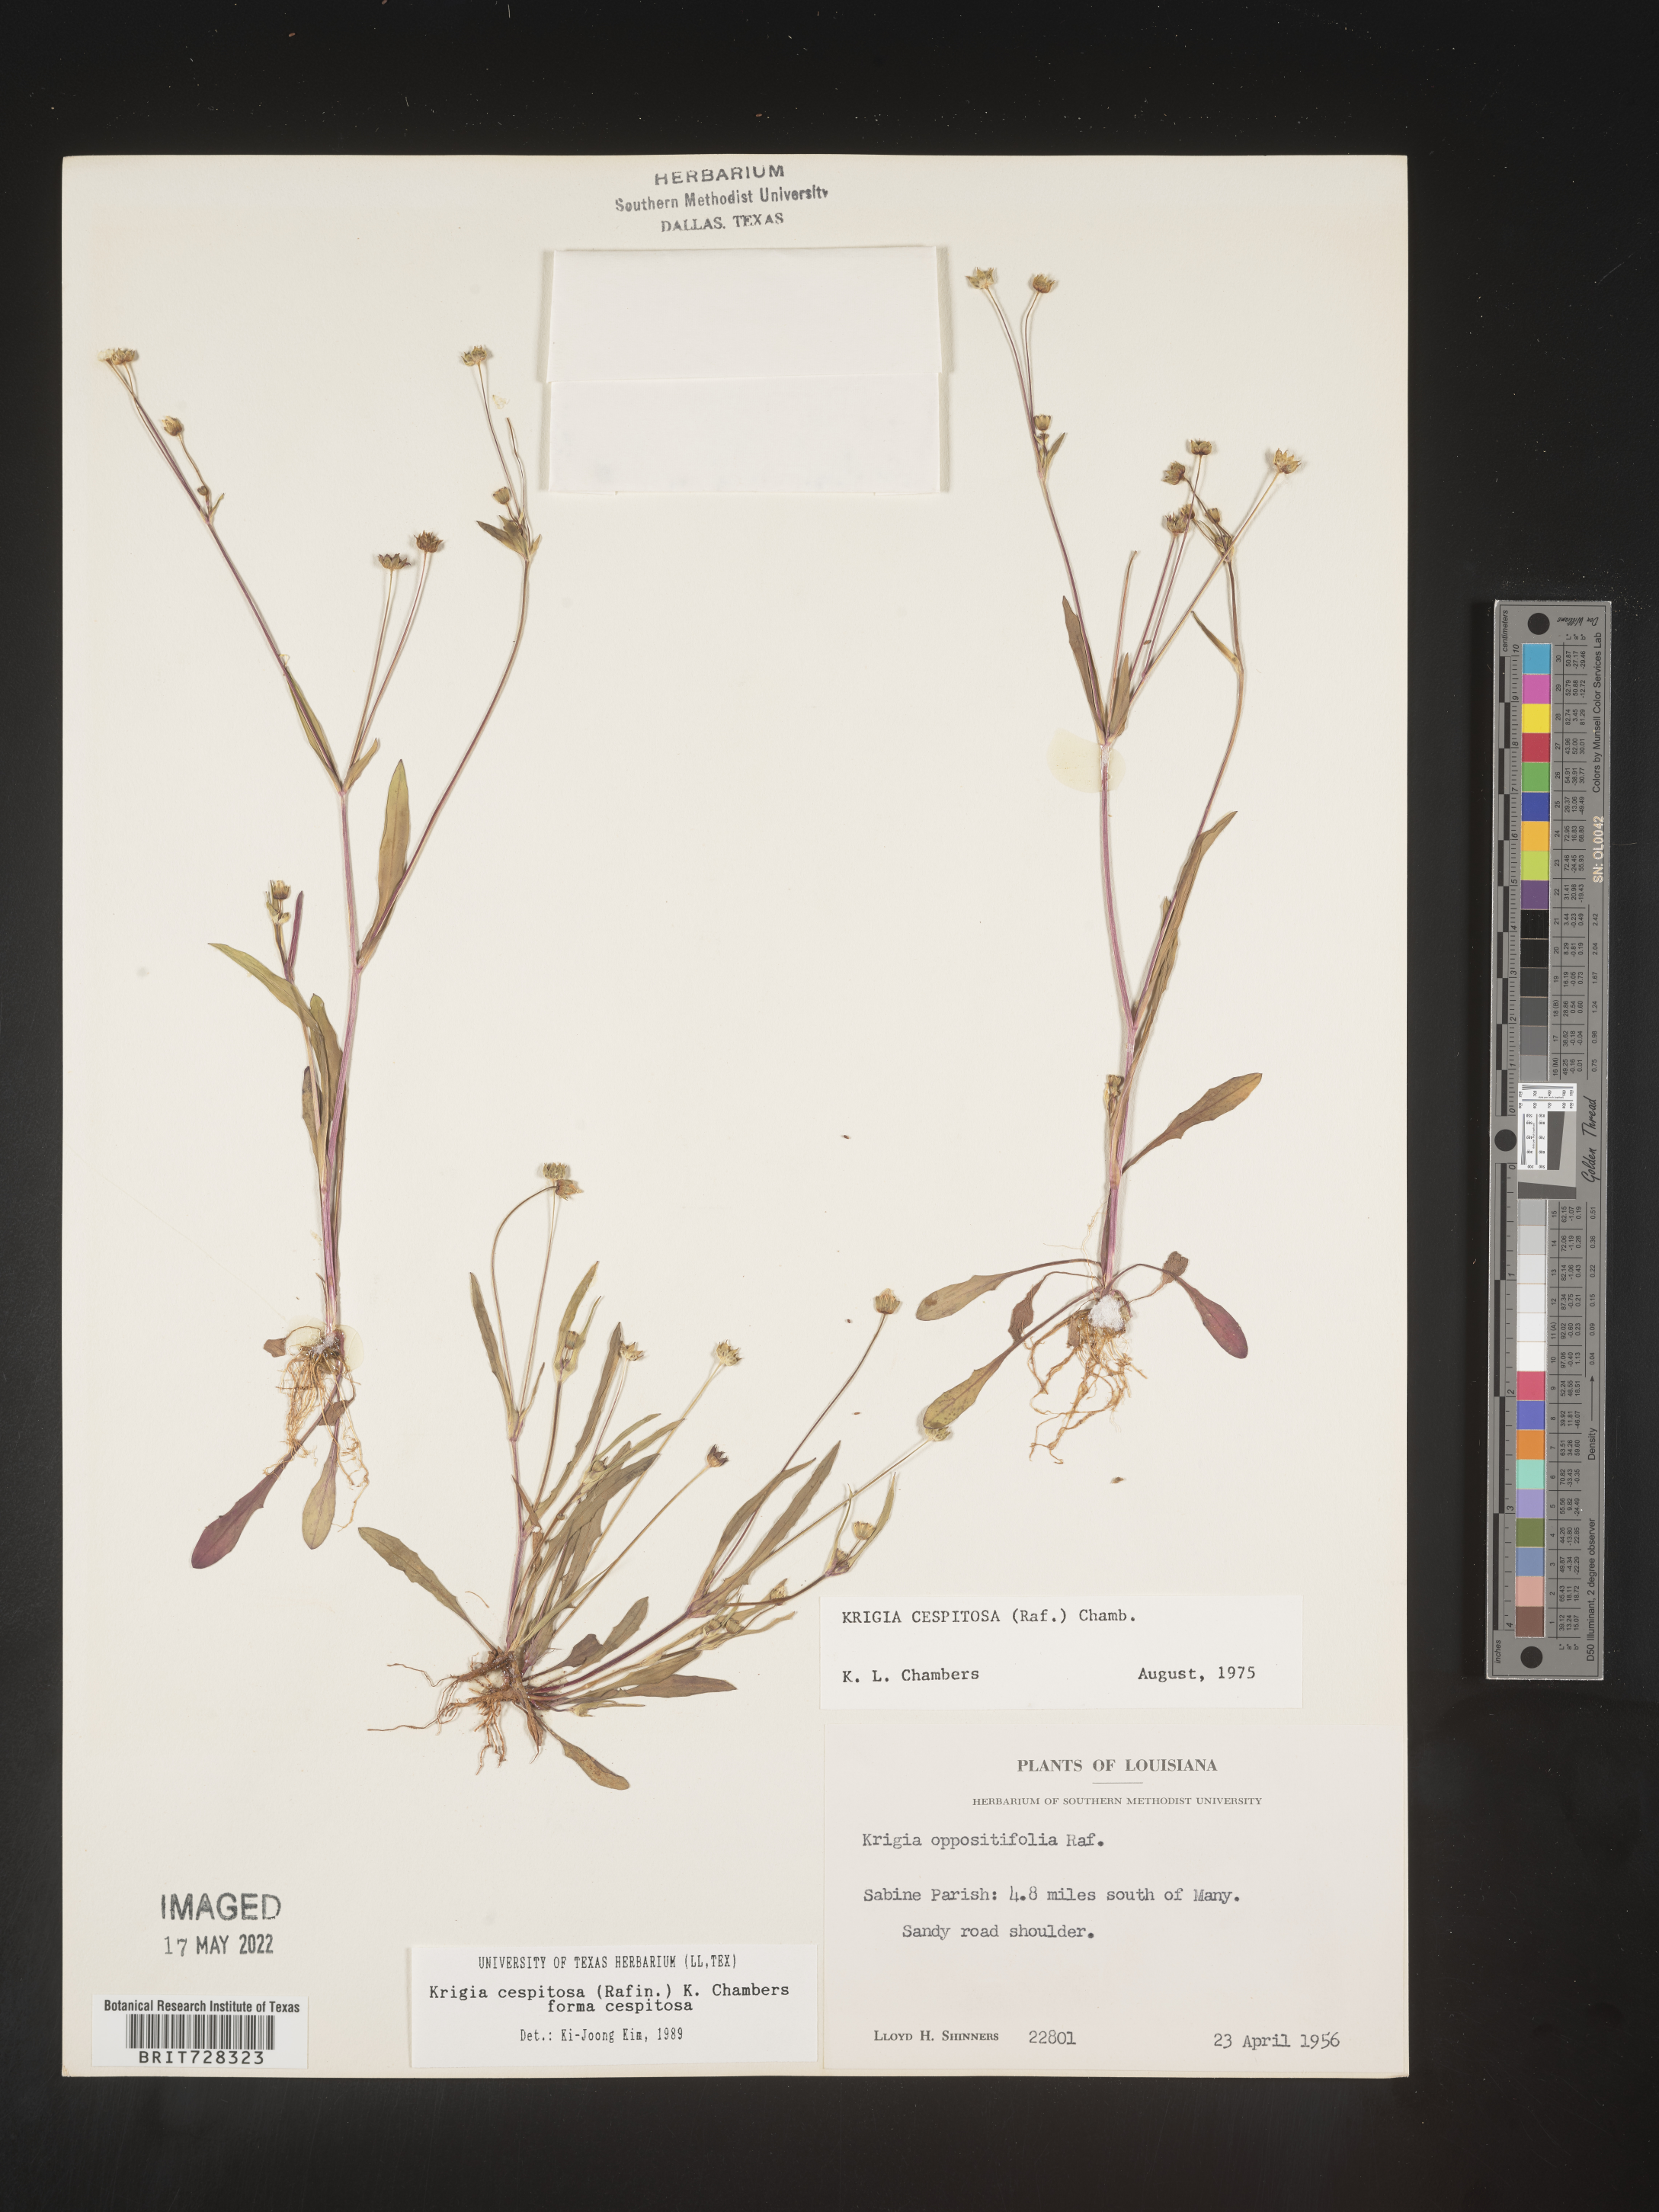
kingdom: Plantae
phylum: Tracheophyta
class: Magnoliopsida
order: Asterales
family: Asteraceae
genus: Krigia
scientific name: Krigia caespitosa
